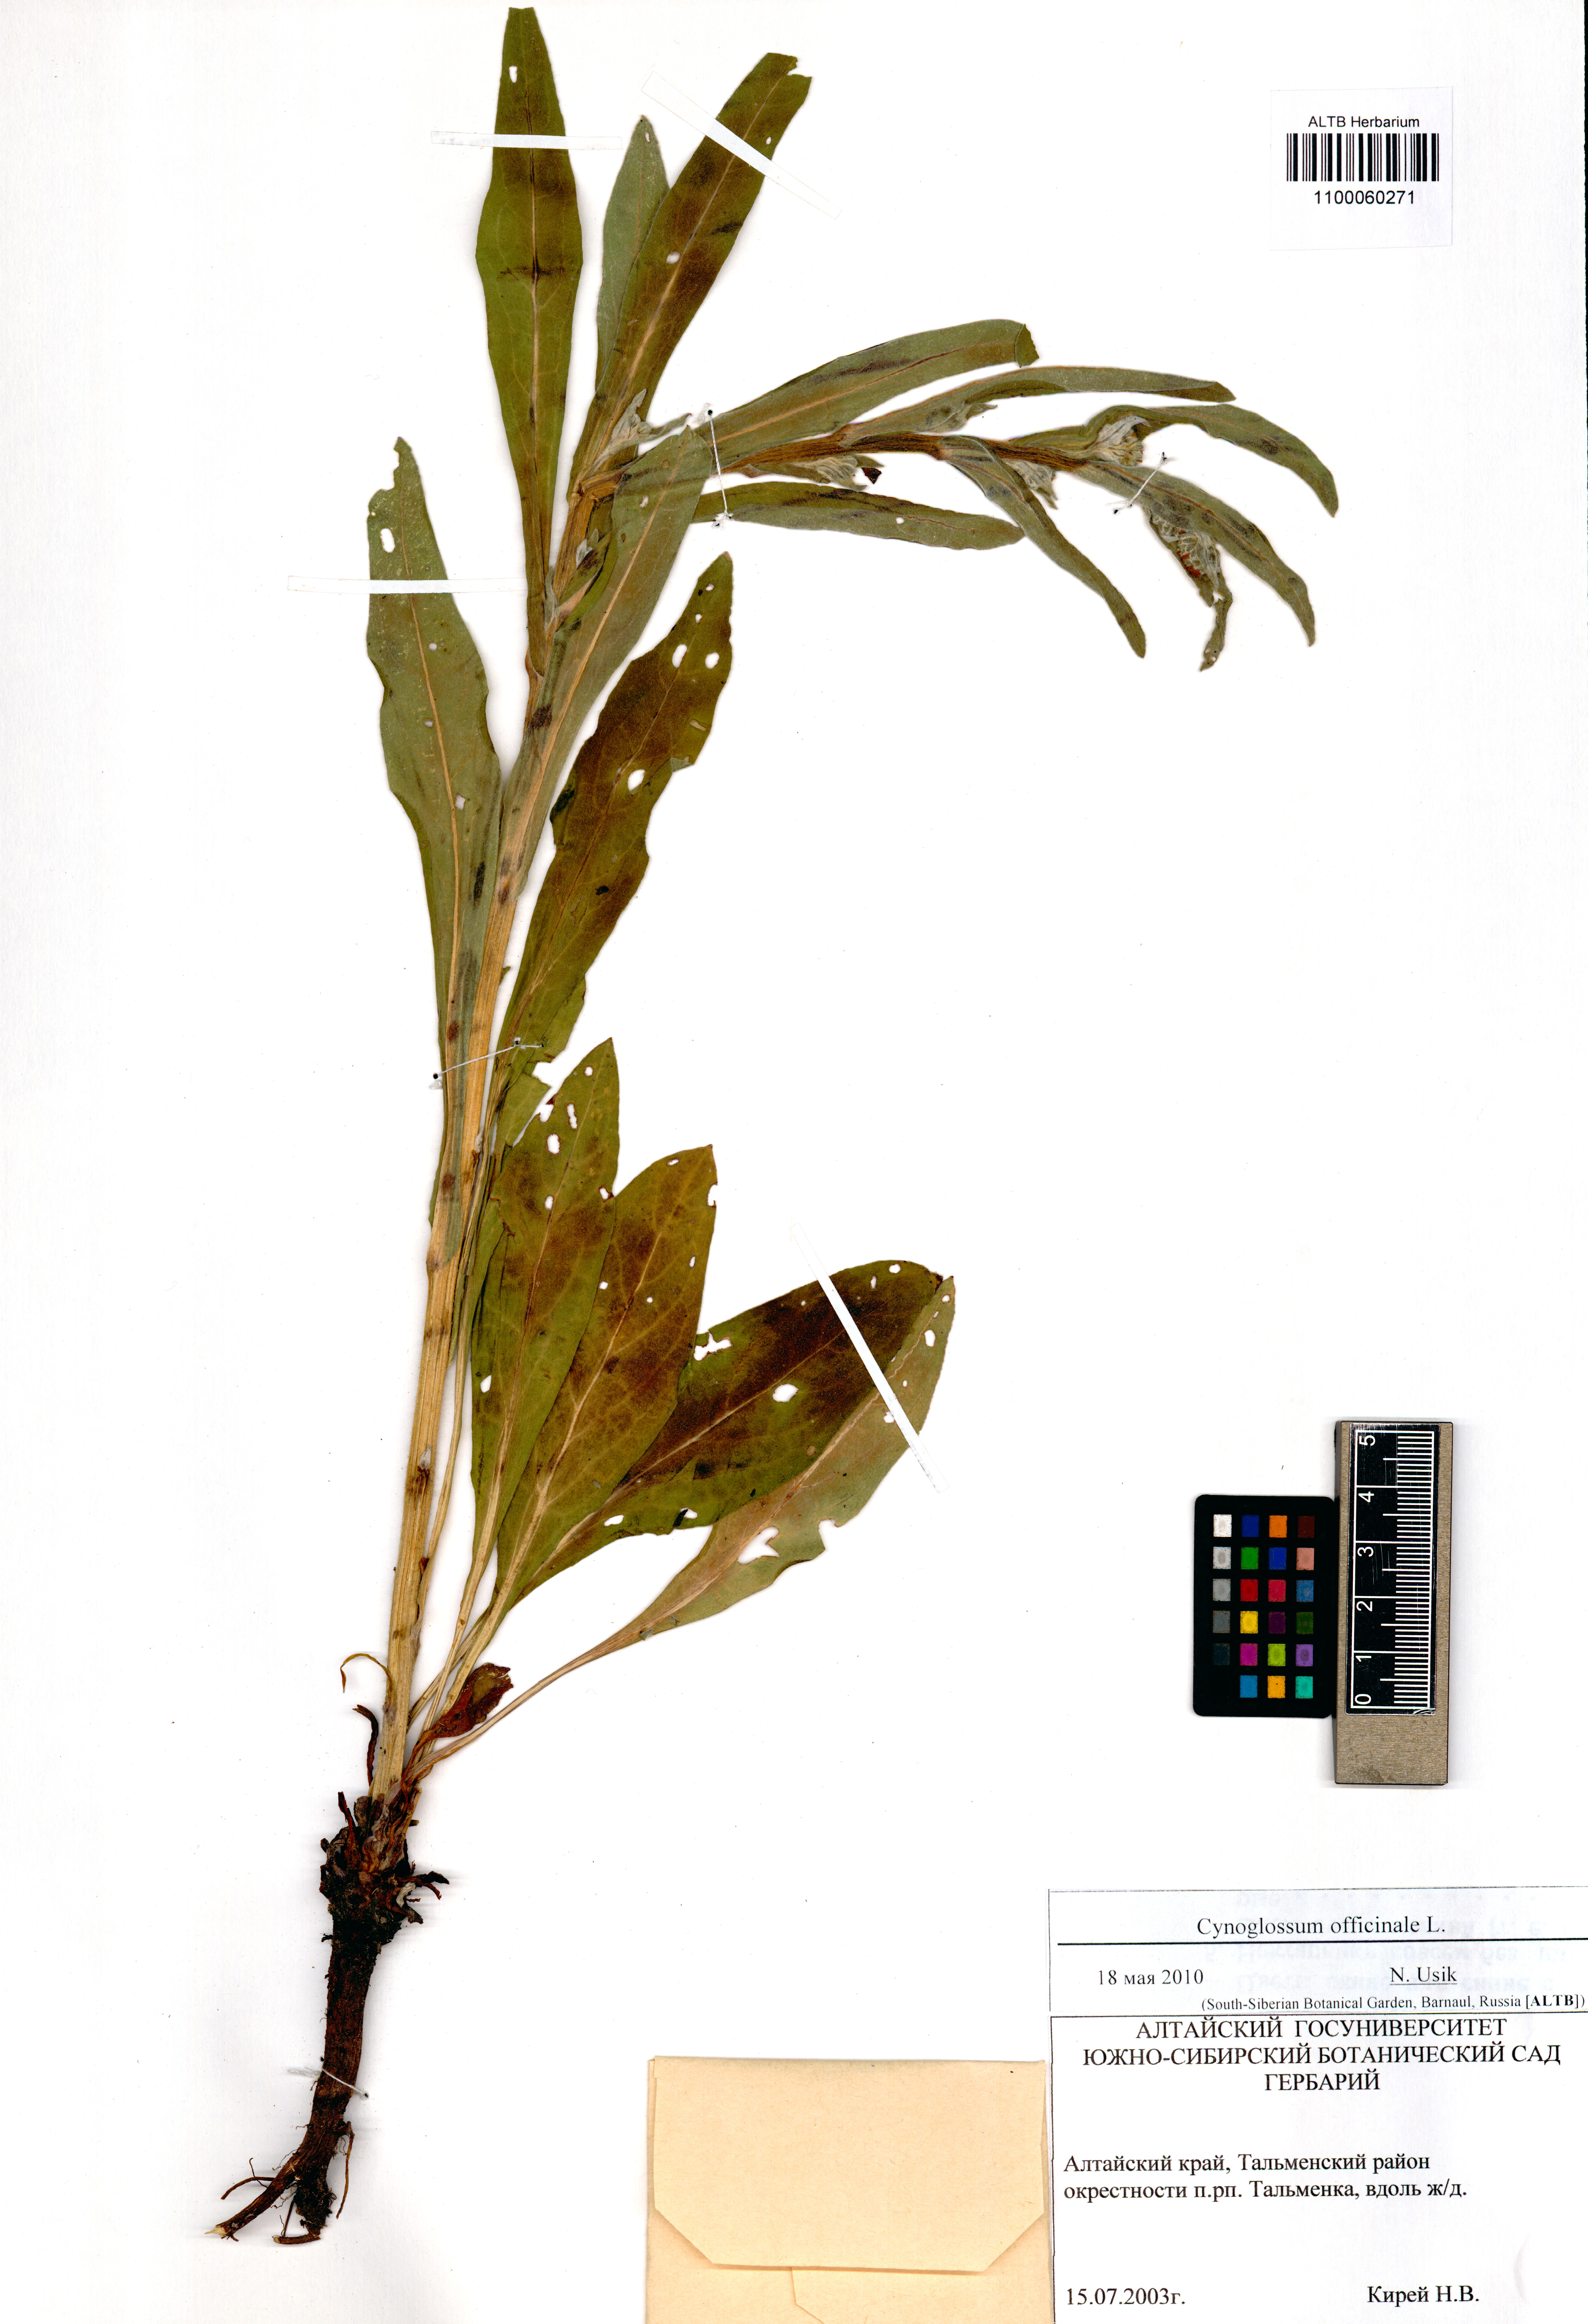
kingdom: Plantae
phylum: Tracheophyta
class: Magnoliopsida
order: Boraginales
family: Boraginaceae
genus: Cynoglossum
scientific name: Cynoglossum officinale
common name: Hound's-tongue
